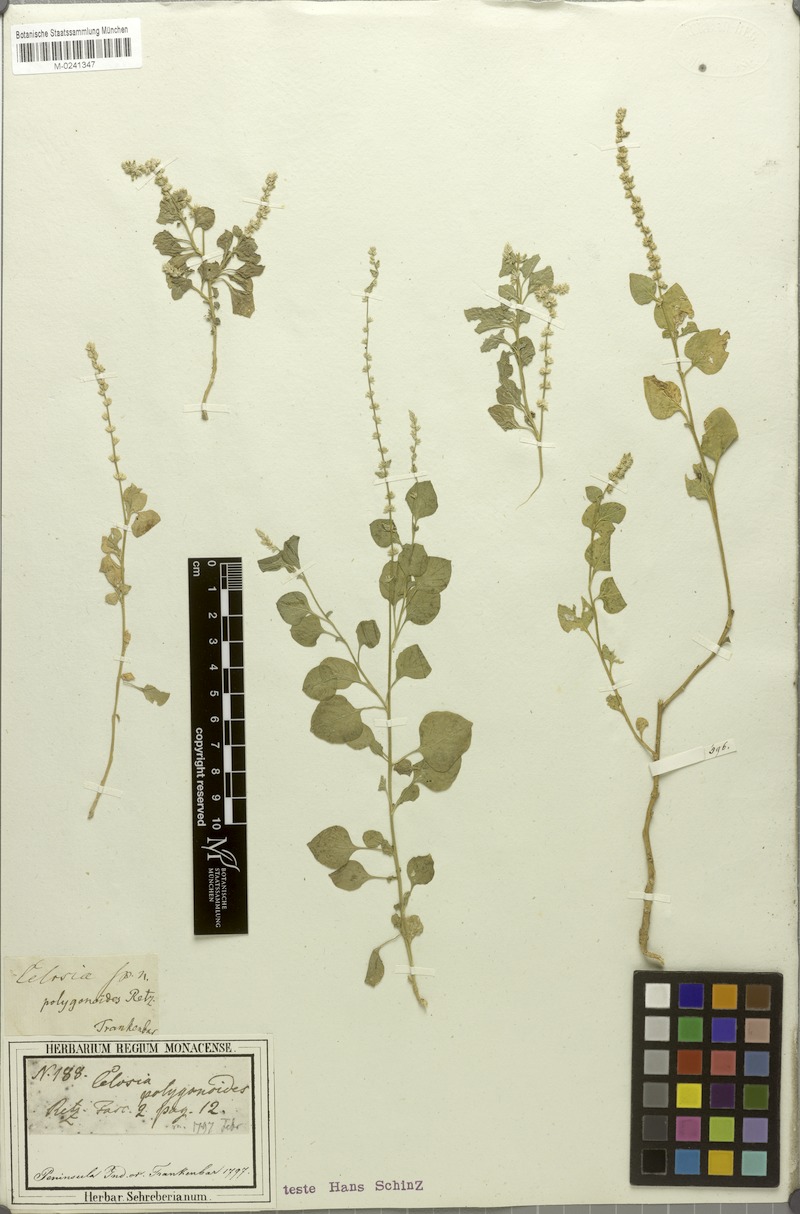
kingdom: Plantae
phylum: Tracheophyta
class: Magnoliopsida
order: Caryophyllales
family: Amaranthaceae
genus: Celosia
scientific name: Celosia polygonoides
